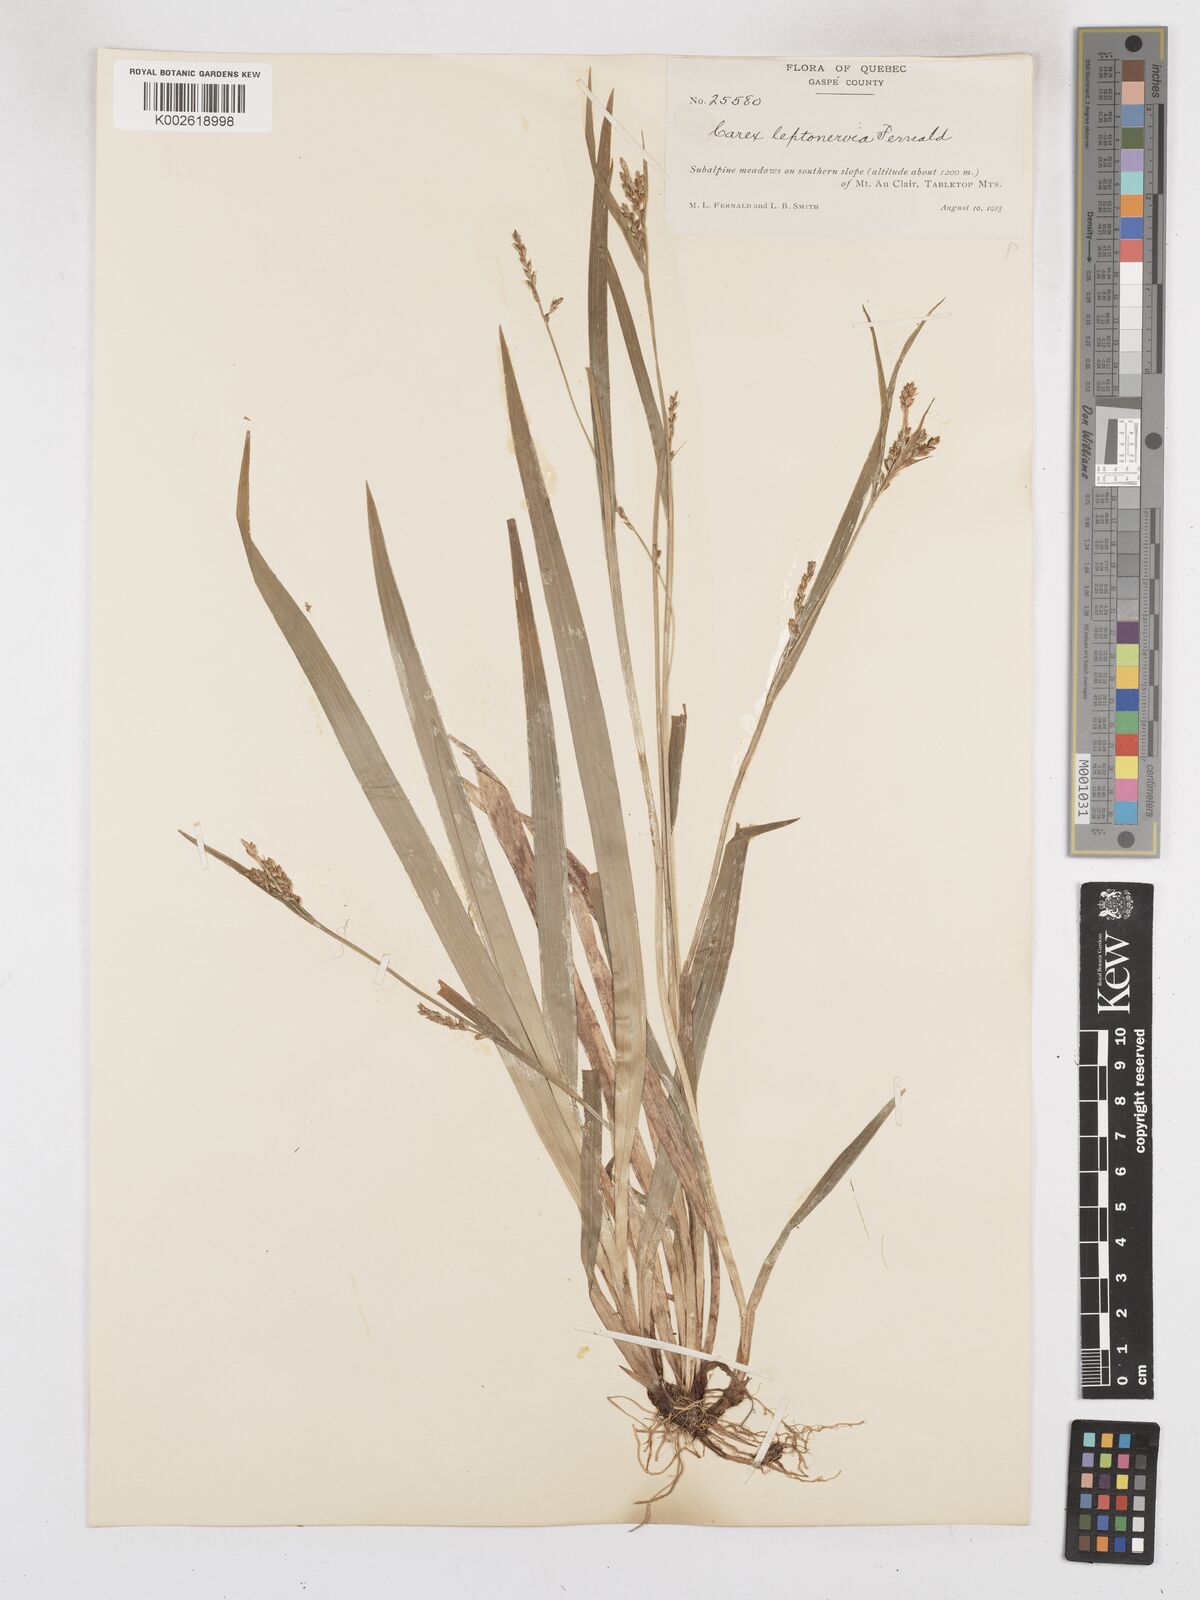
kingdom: Plantae
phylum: Tracheophyta
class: Liliopsida
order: Poales
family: Cyperaceae
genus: Carex
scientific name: Carex leptonervia
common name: Few-nerved wood sedge
